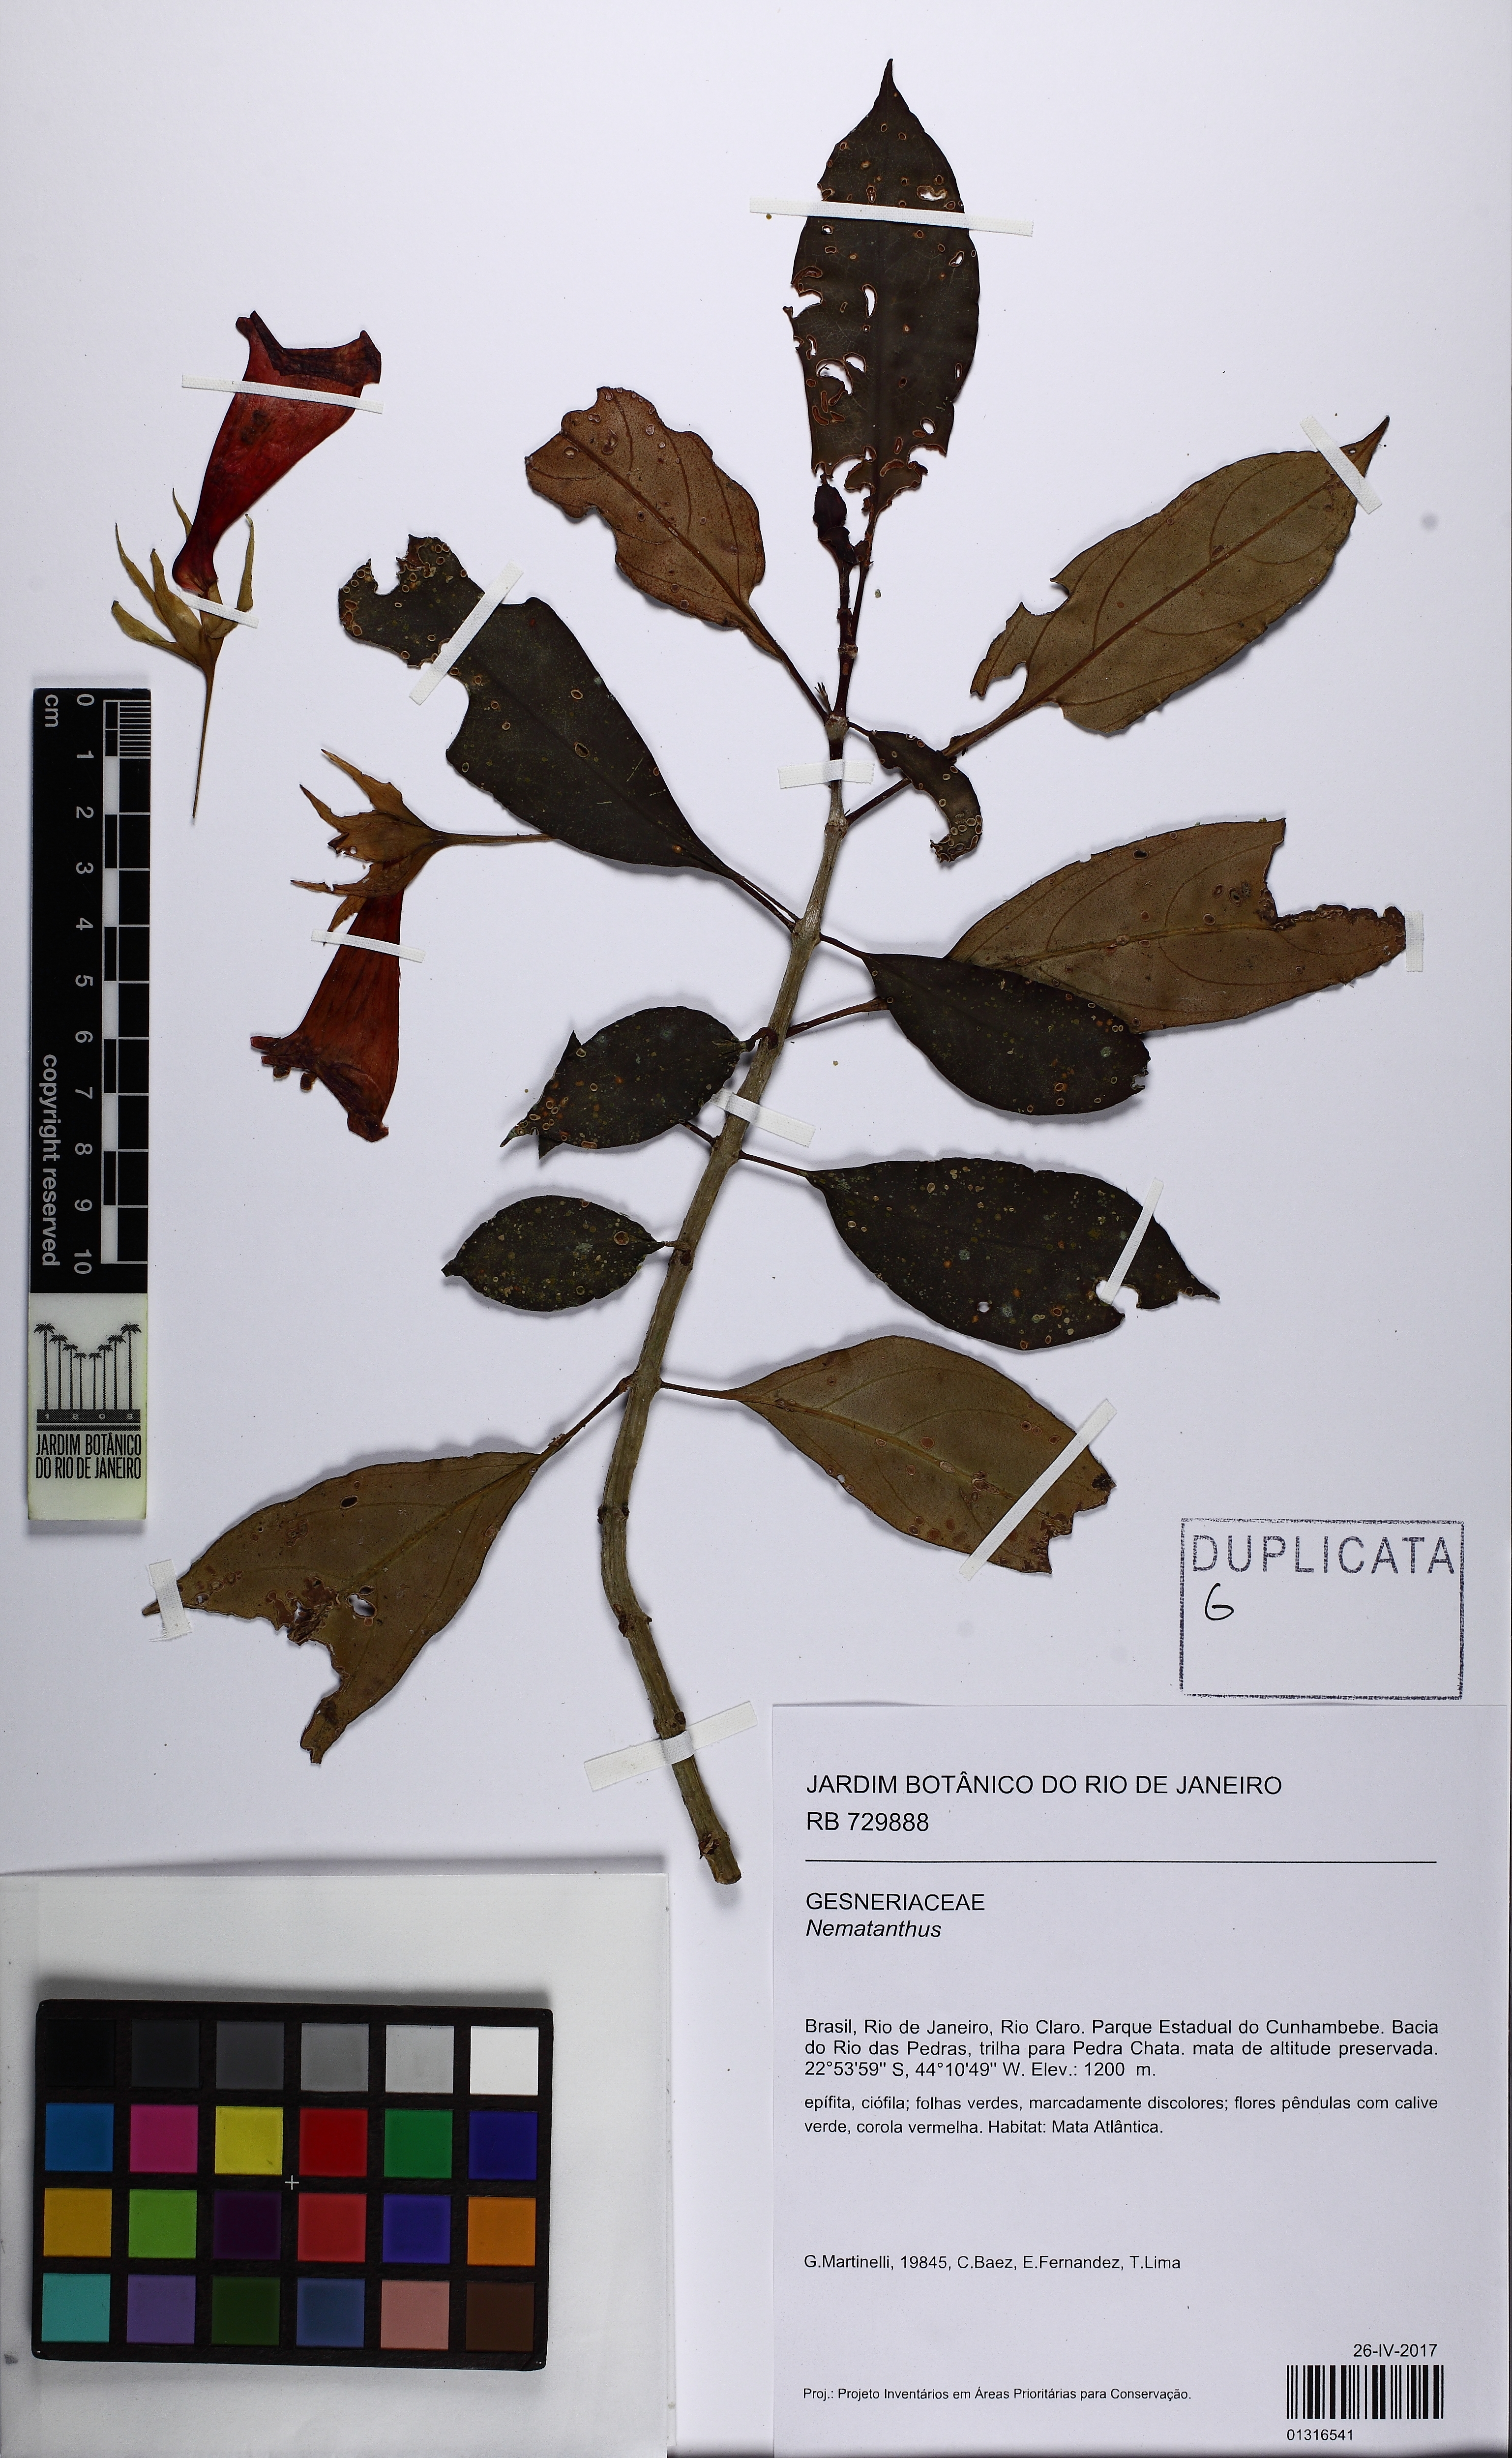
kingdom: Plantae
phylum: Tracheophyta
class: Magnoliopsida
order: Lamiales
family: Gesneriaceae
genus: Nematanthus
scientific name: Nematanthus
